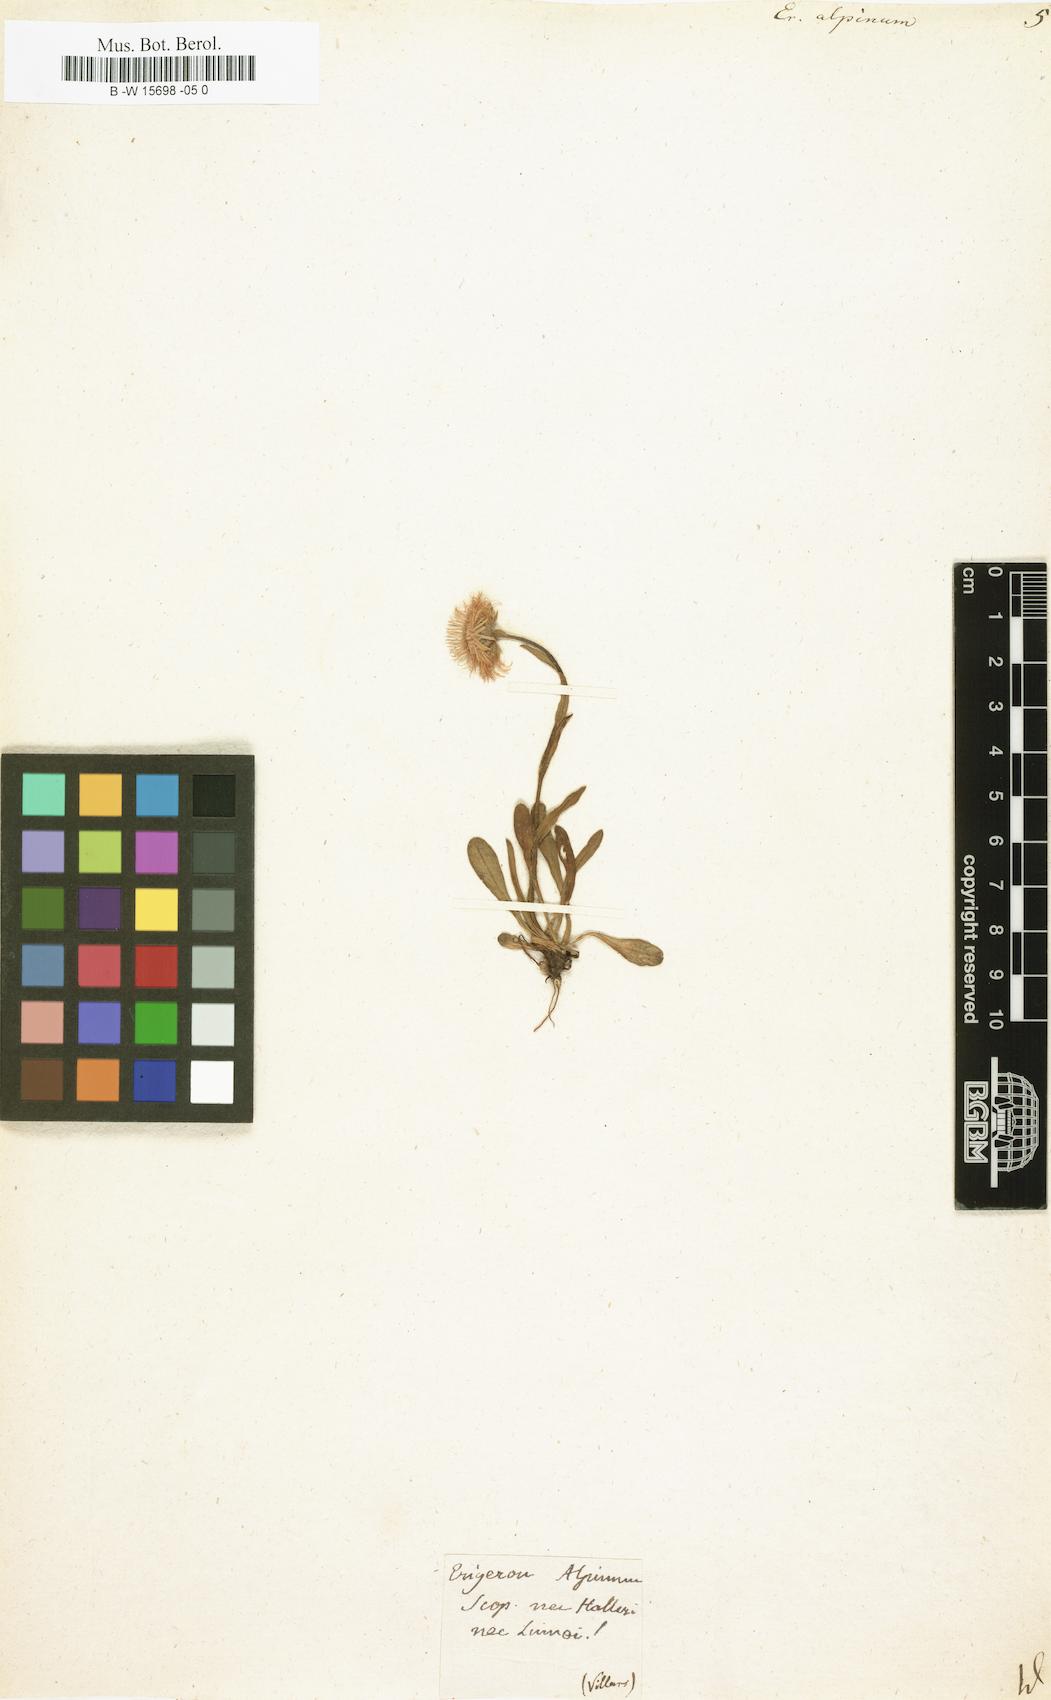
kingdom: Plantae
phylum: Tracheophyta
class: Magnoliopsida
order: Asterales
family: Asteraceae
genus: Erigeron
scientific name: Erigeron alpinus
